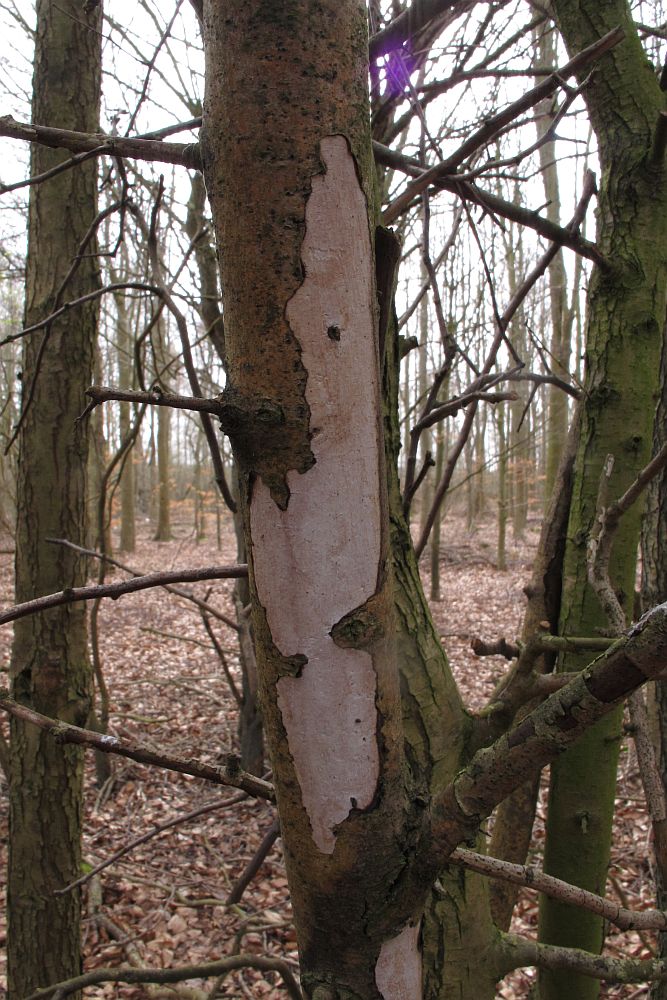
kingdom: Fungi
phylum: Basidiomycota
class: Agaricomycetes
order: Corticiales
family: Vuilleminiaceae
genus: Vuilleminia
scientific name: Vuilleminia cystidiata
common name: tjørne-barksprænger
